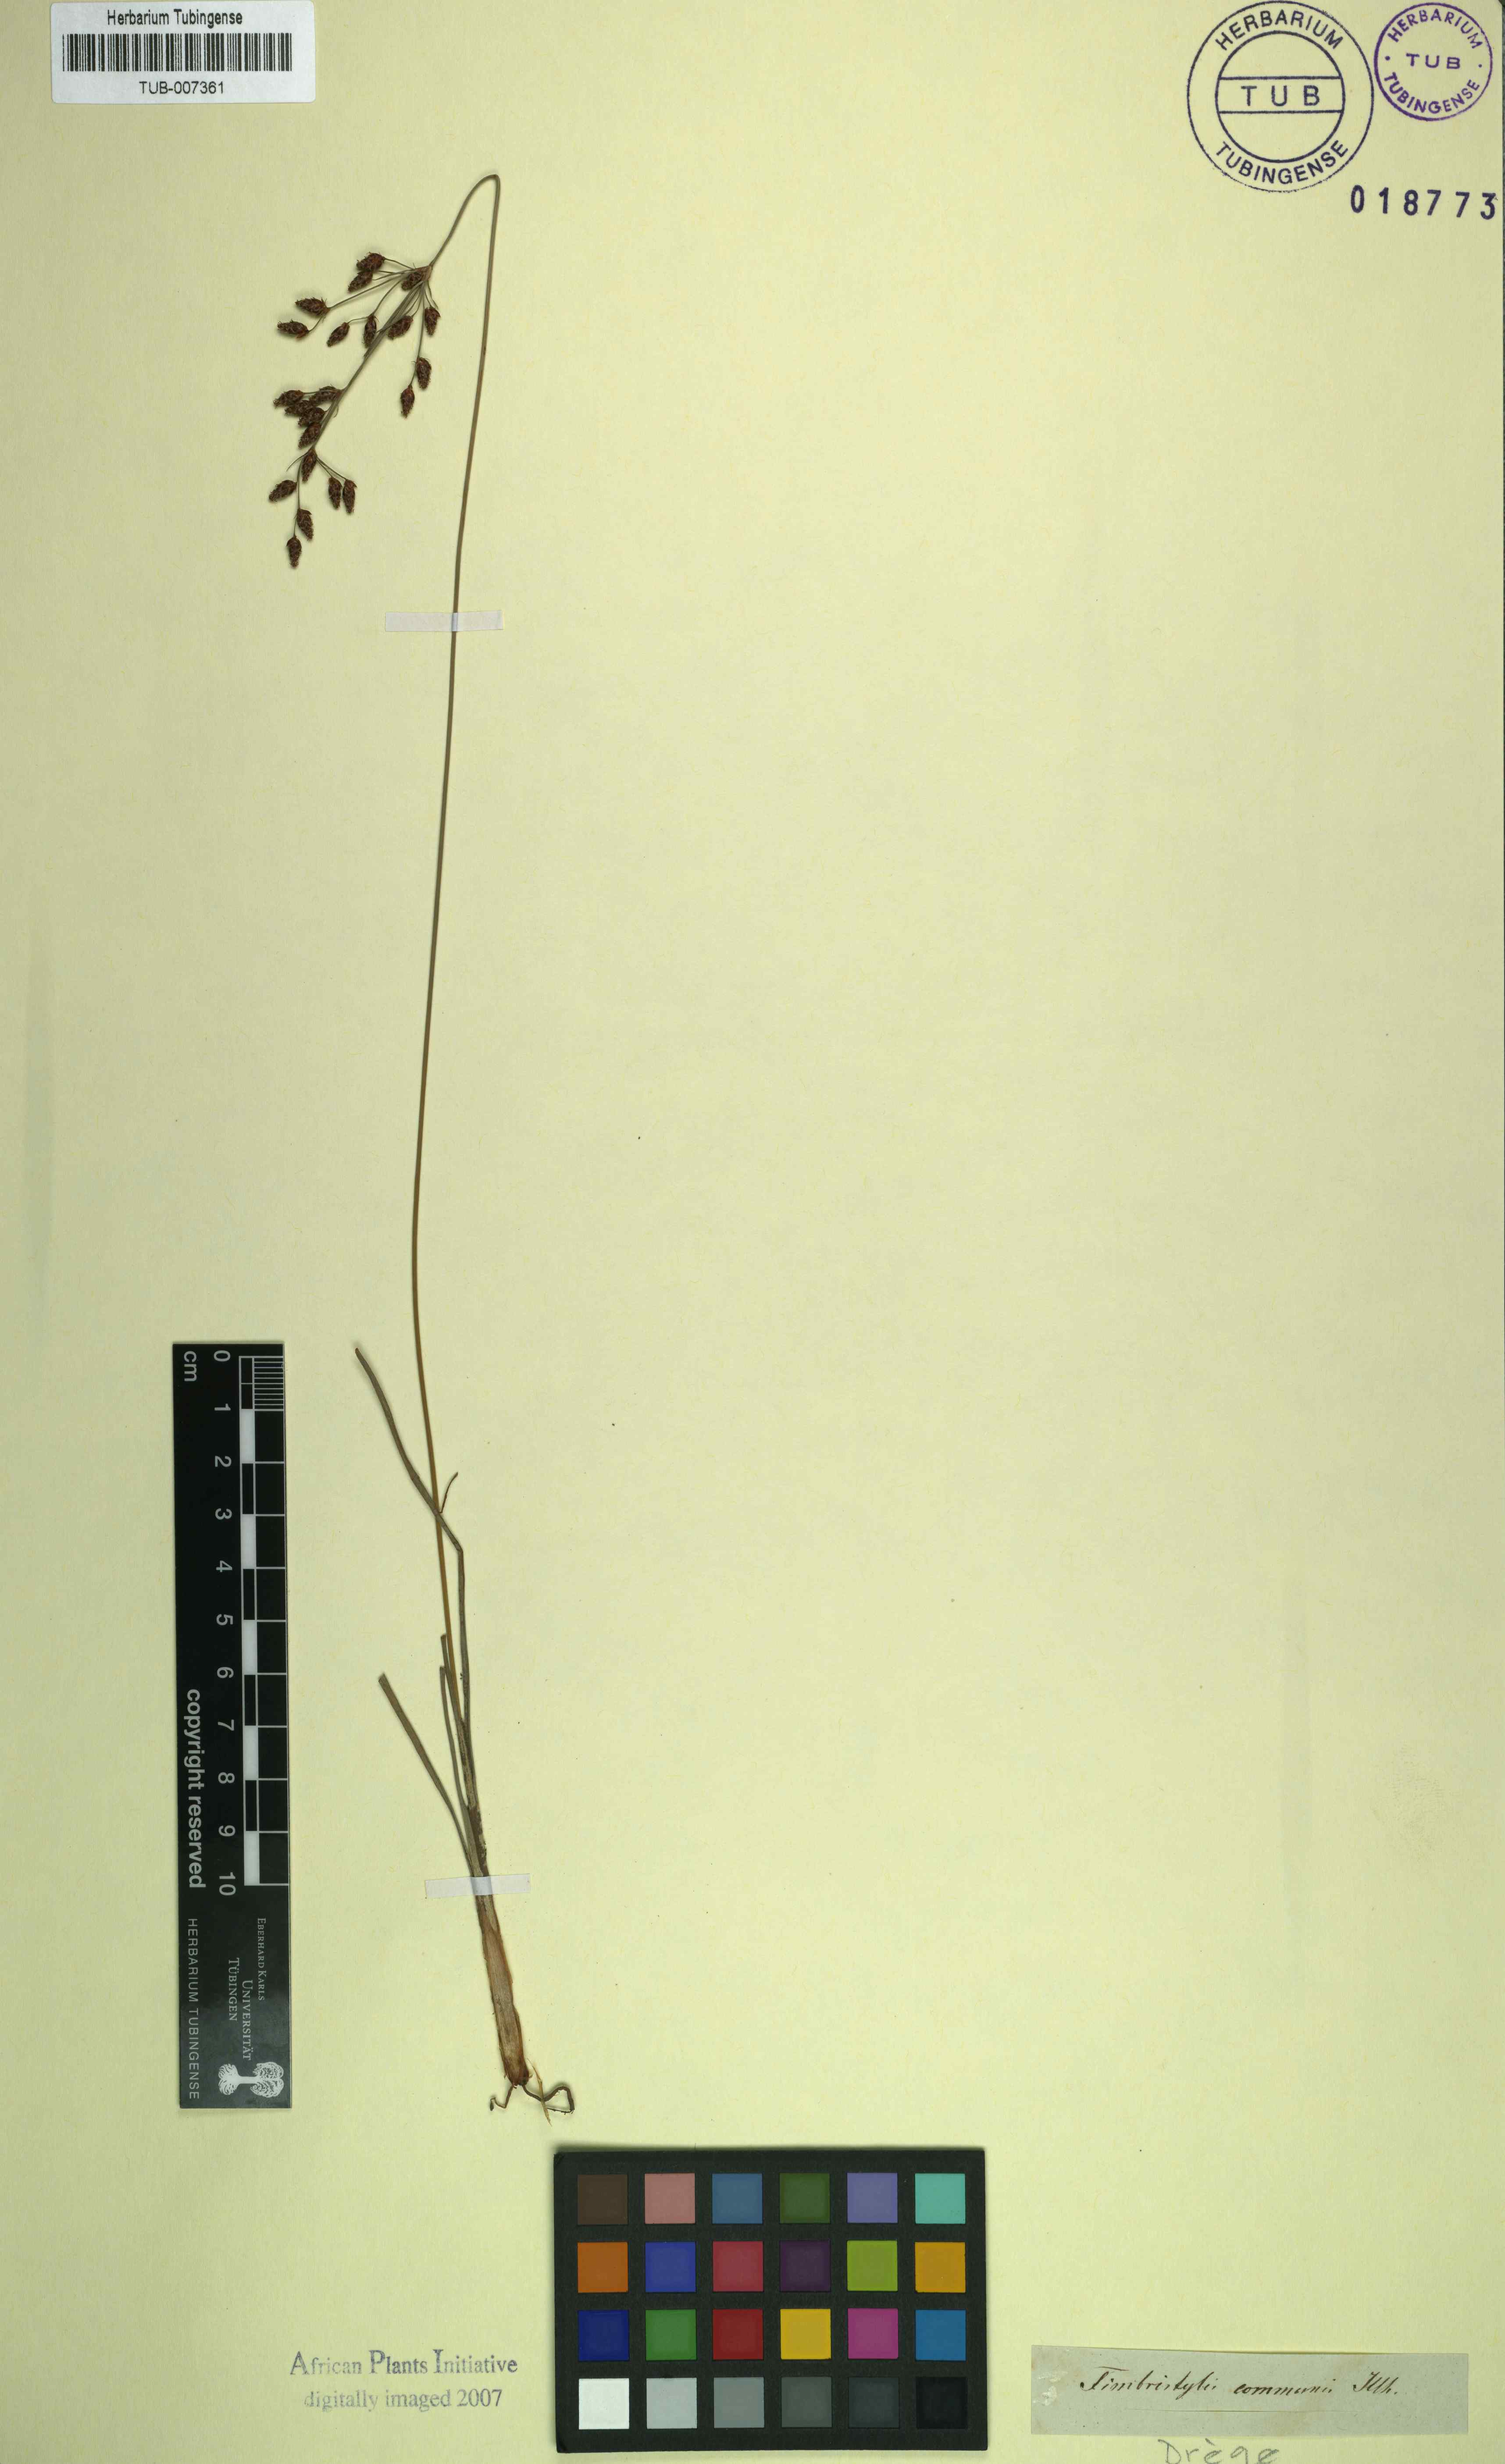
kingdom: Plantae
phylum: Tracheophyta
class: Liliopsida
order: Poales
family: Cyperaceae
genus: Fimbristylis
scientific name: Fimbristylis dichotoma
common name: Forked fimbry
